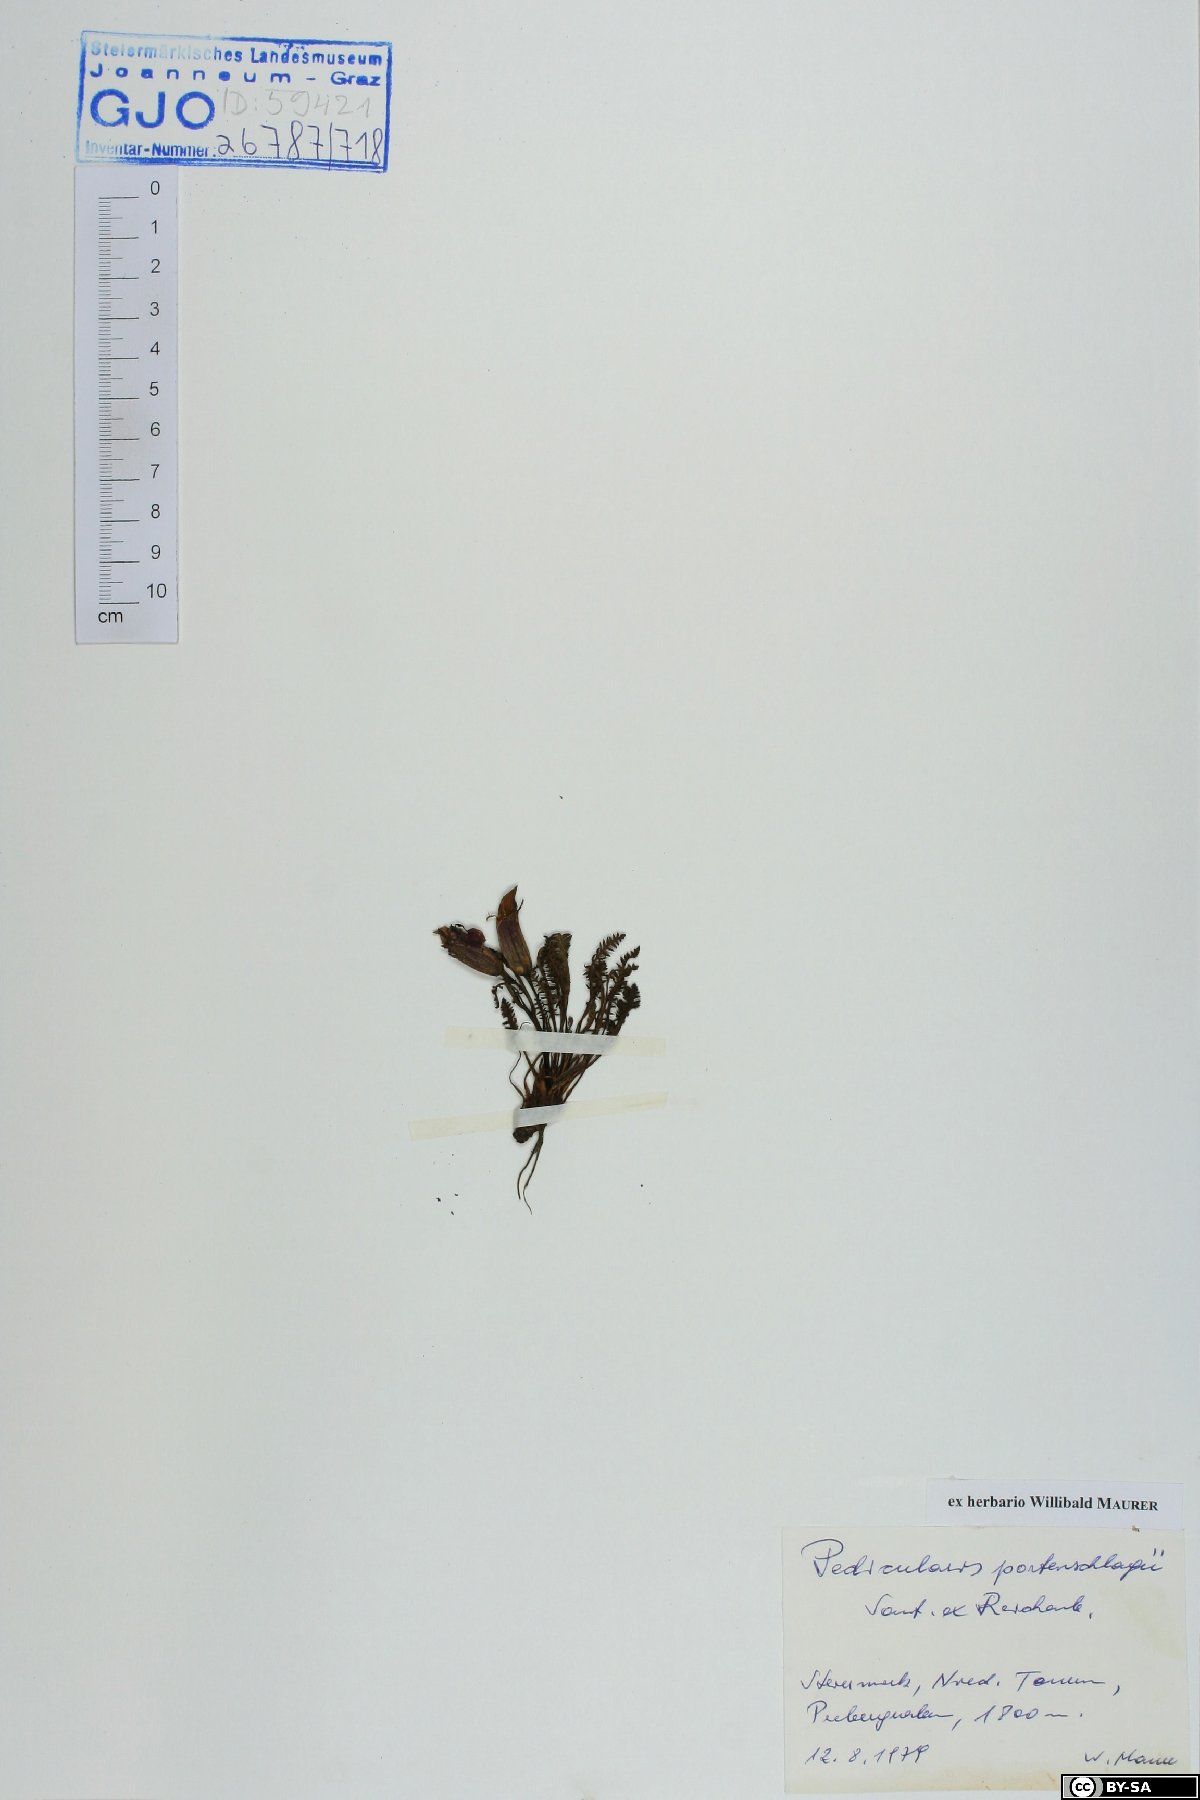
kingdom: Plantae
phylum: Tracheophyta
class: Magnoliopsida
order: Lamiales
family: Orobanchaceae
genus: Pedicularis
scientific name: Pedicularis portenschlagii
